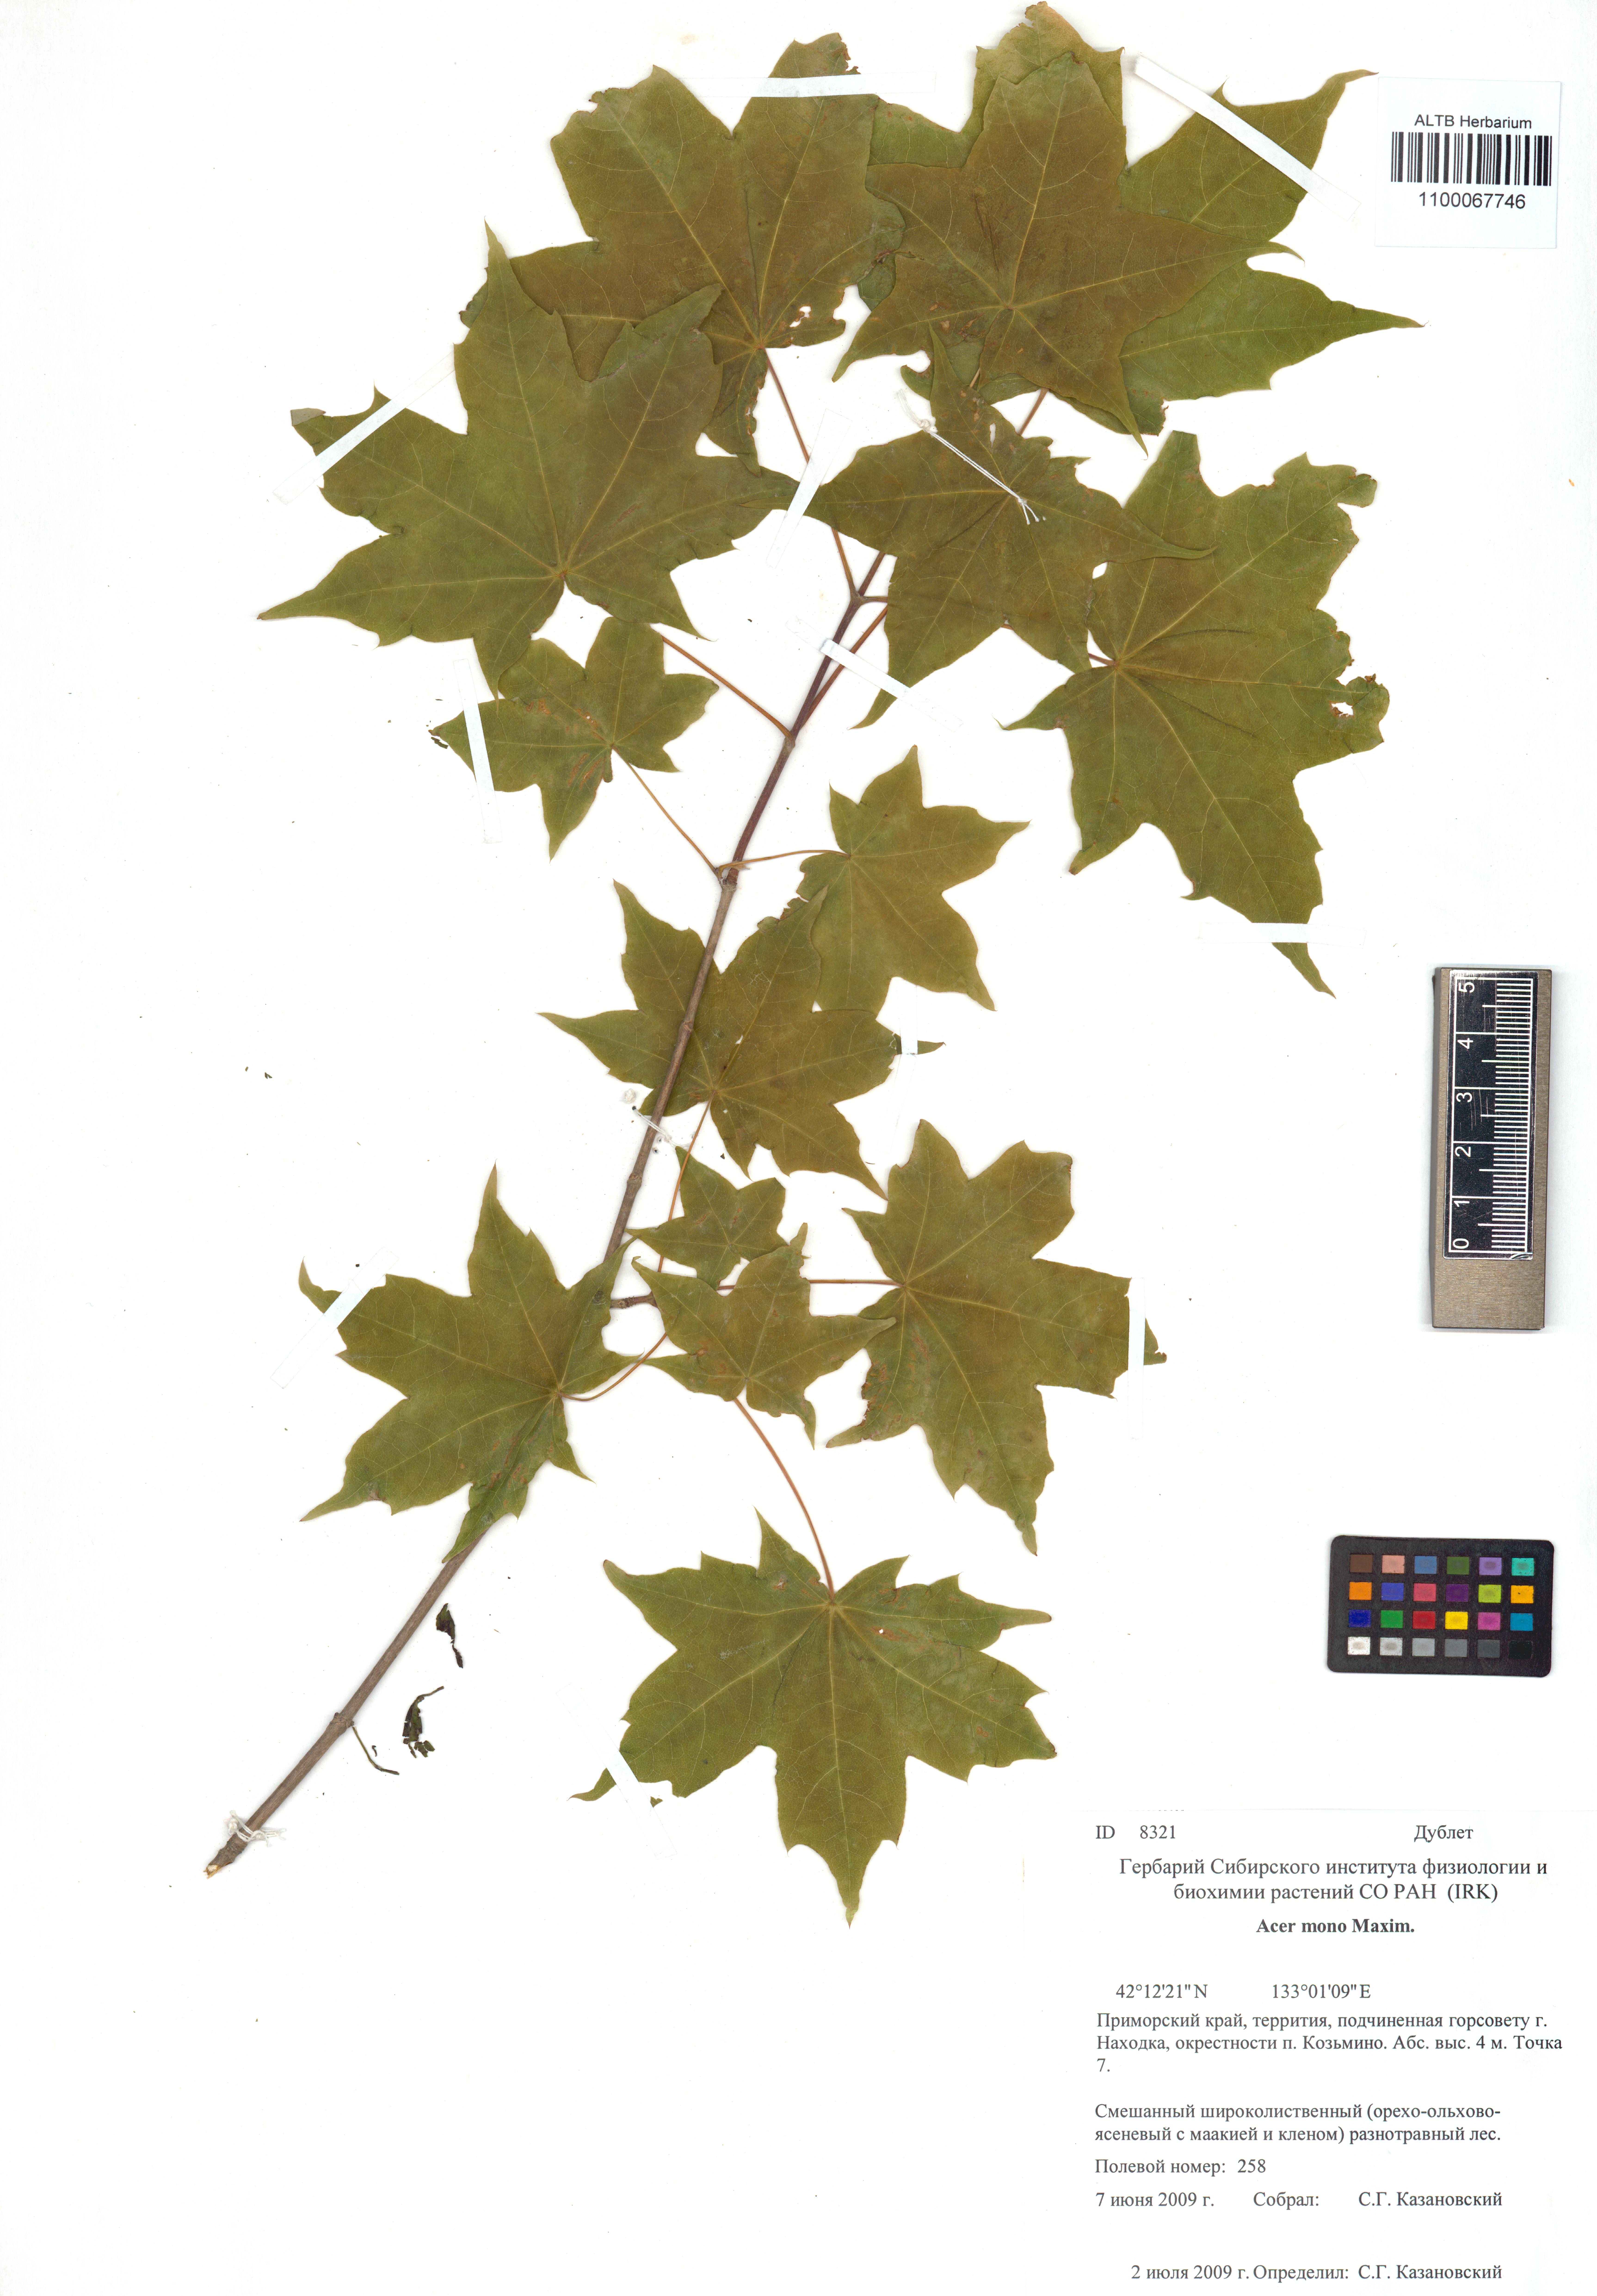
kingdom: Plantae
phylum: Tracheophyta
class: Magnoliopsida
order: Sapindales
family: Sapindaceae
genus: Acer
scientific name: Acer pictum
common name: The painted maple
